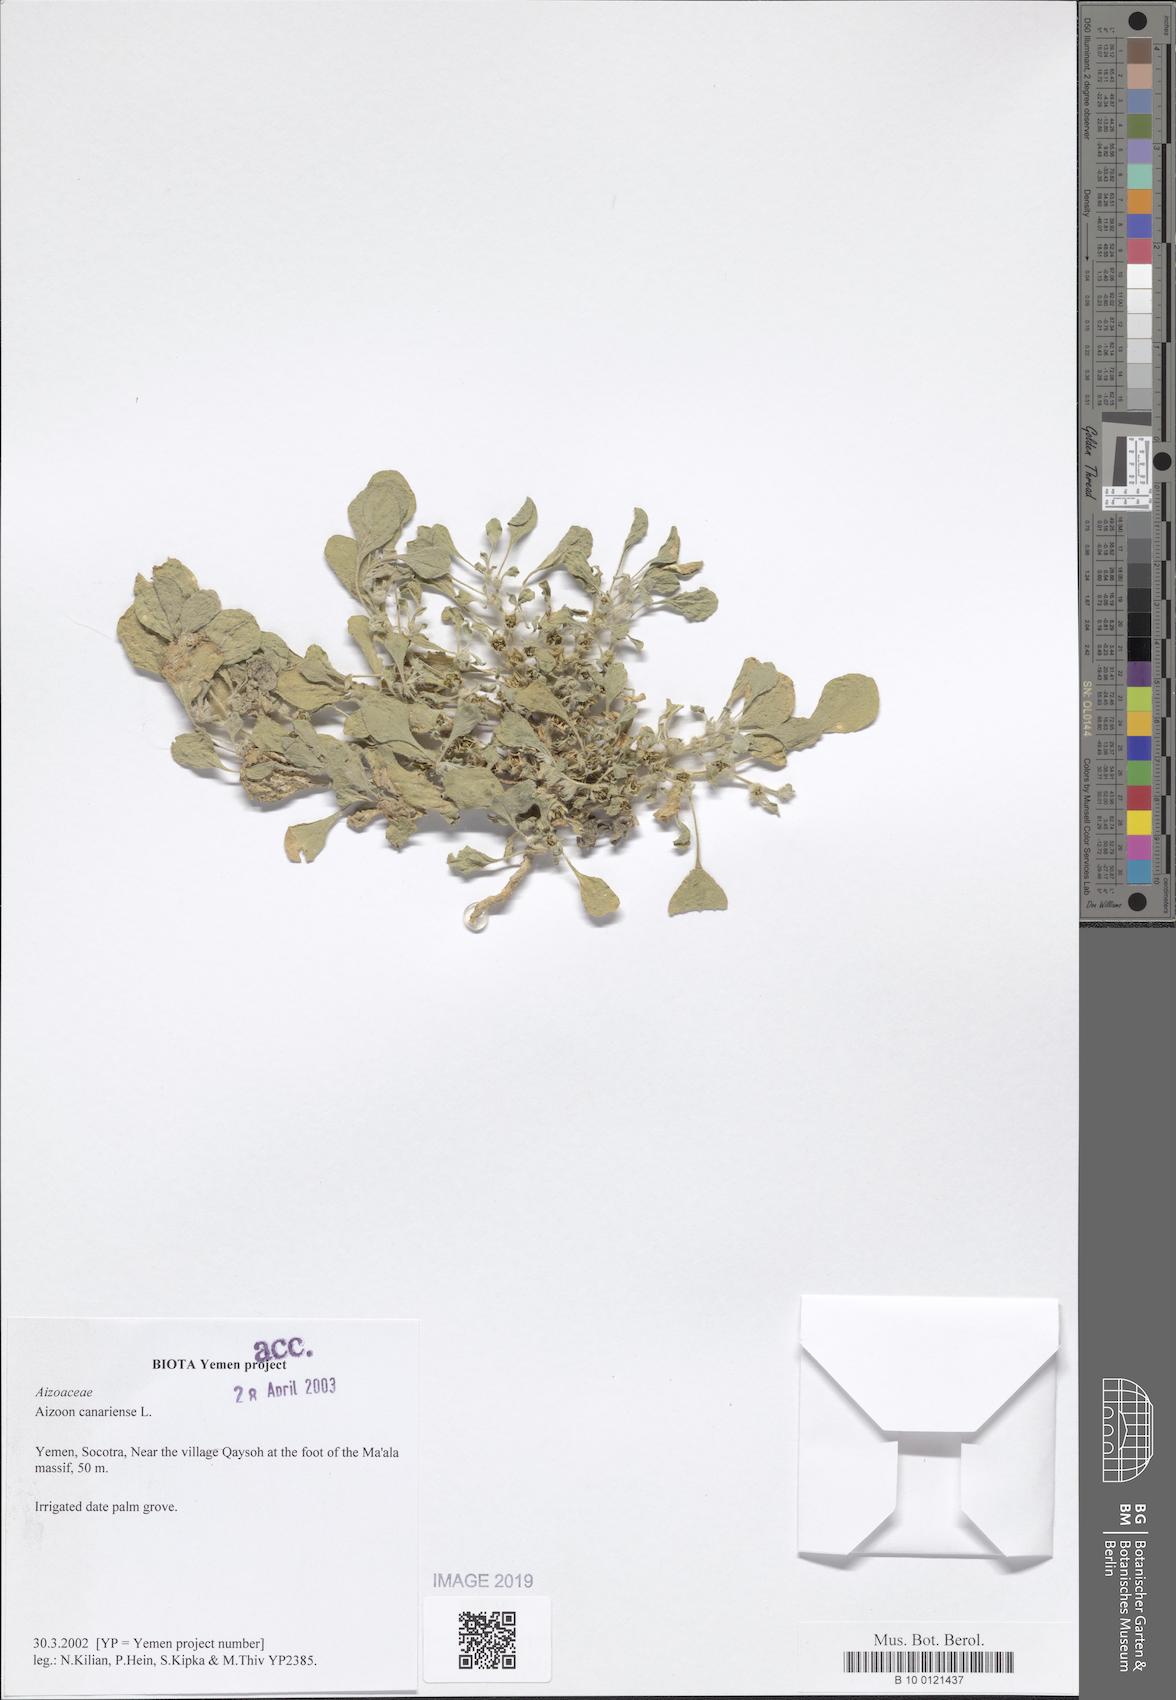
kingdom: Plantae
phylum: Tracheophyta
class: Magnoliopsida
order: Caryophyllales
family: Aizoaceae
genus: Aizoon
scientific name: Aizoon canariense
